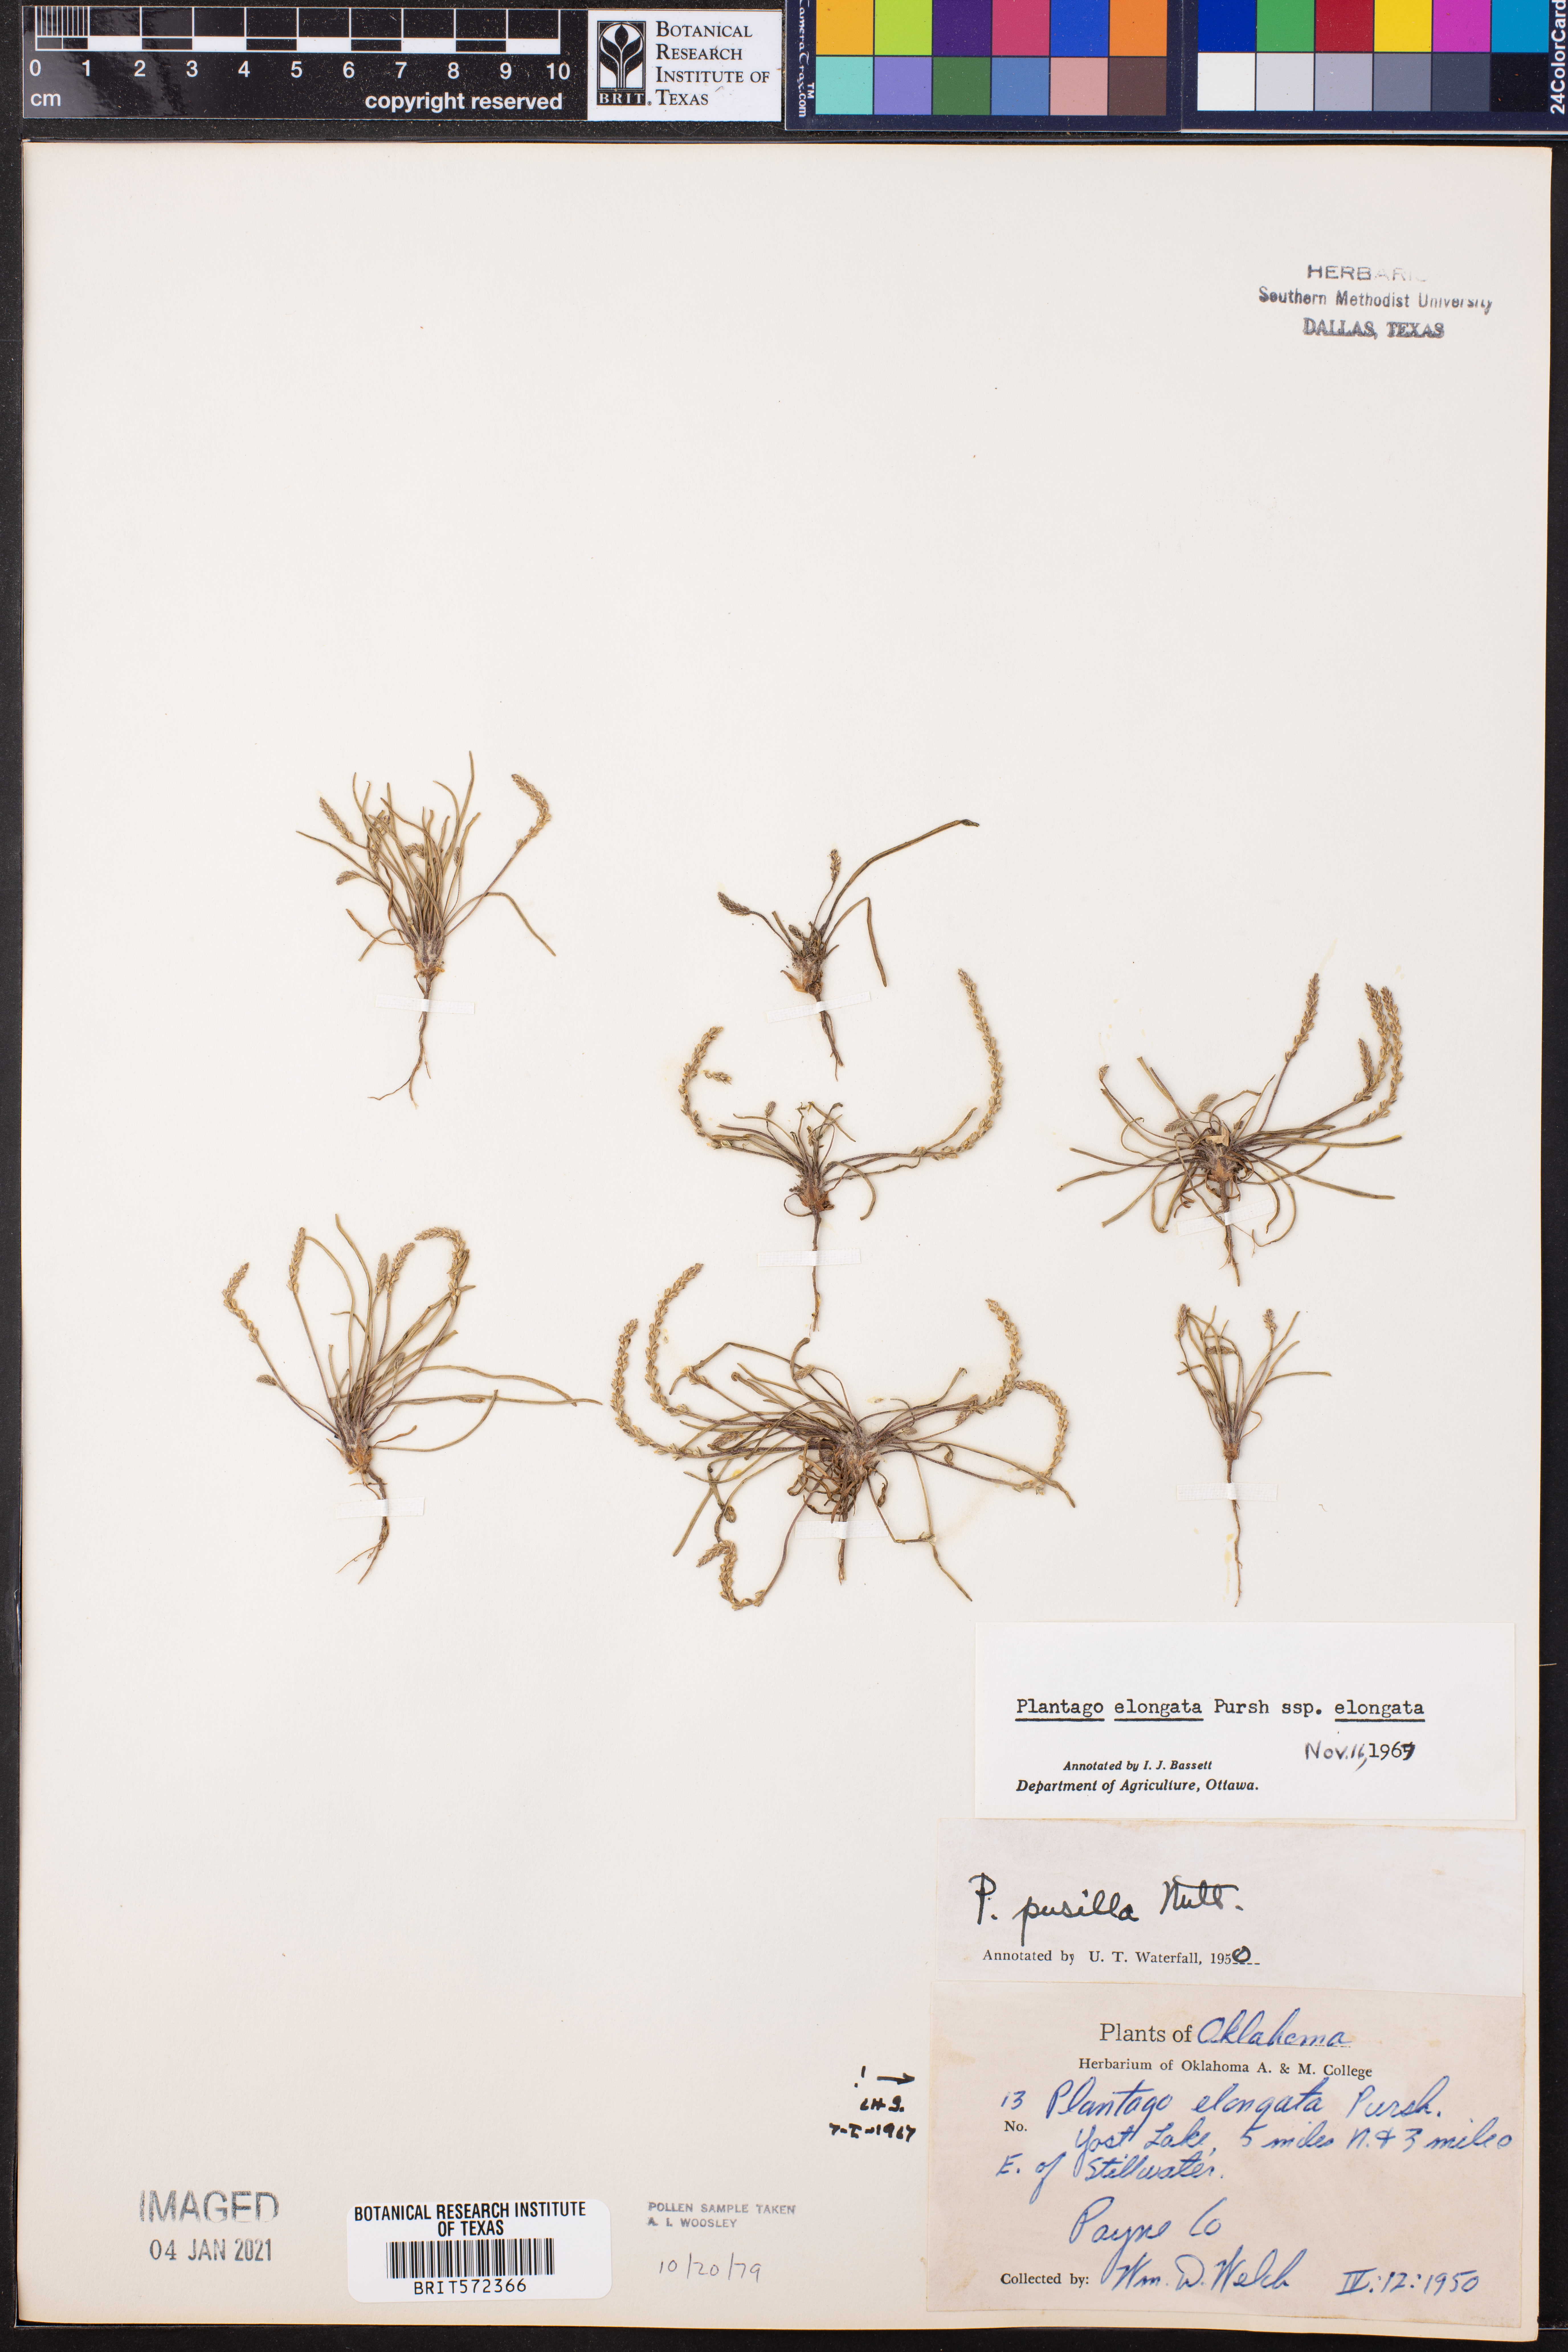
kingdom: Plantae
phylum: Tracheophyta
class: Magnoliopsida
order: Lamiales
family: Plantaginaceae
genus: Plantago
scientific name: Plantago elongata
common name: Linear-leaved plantain
